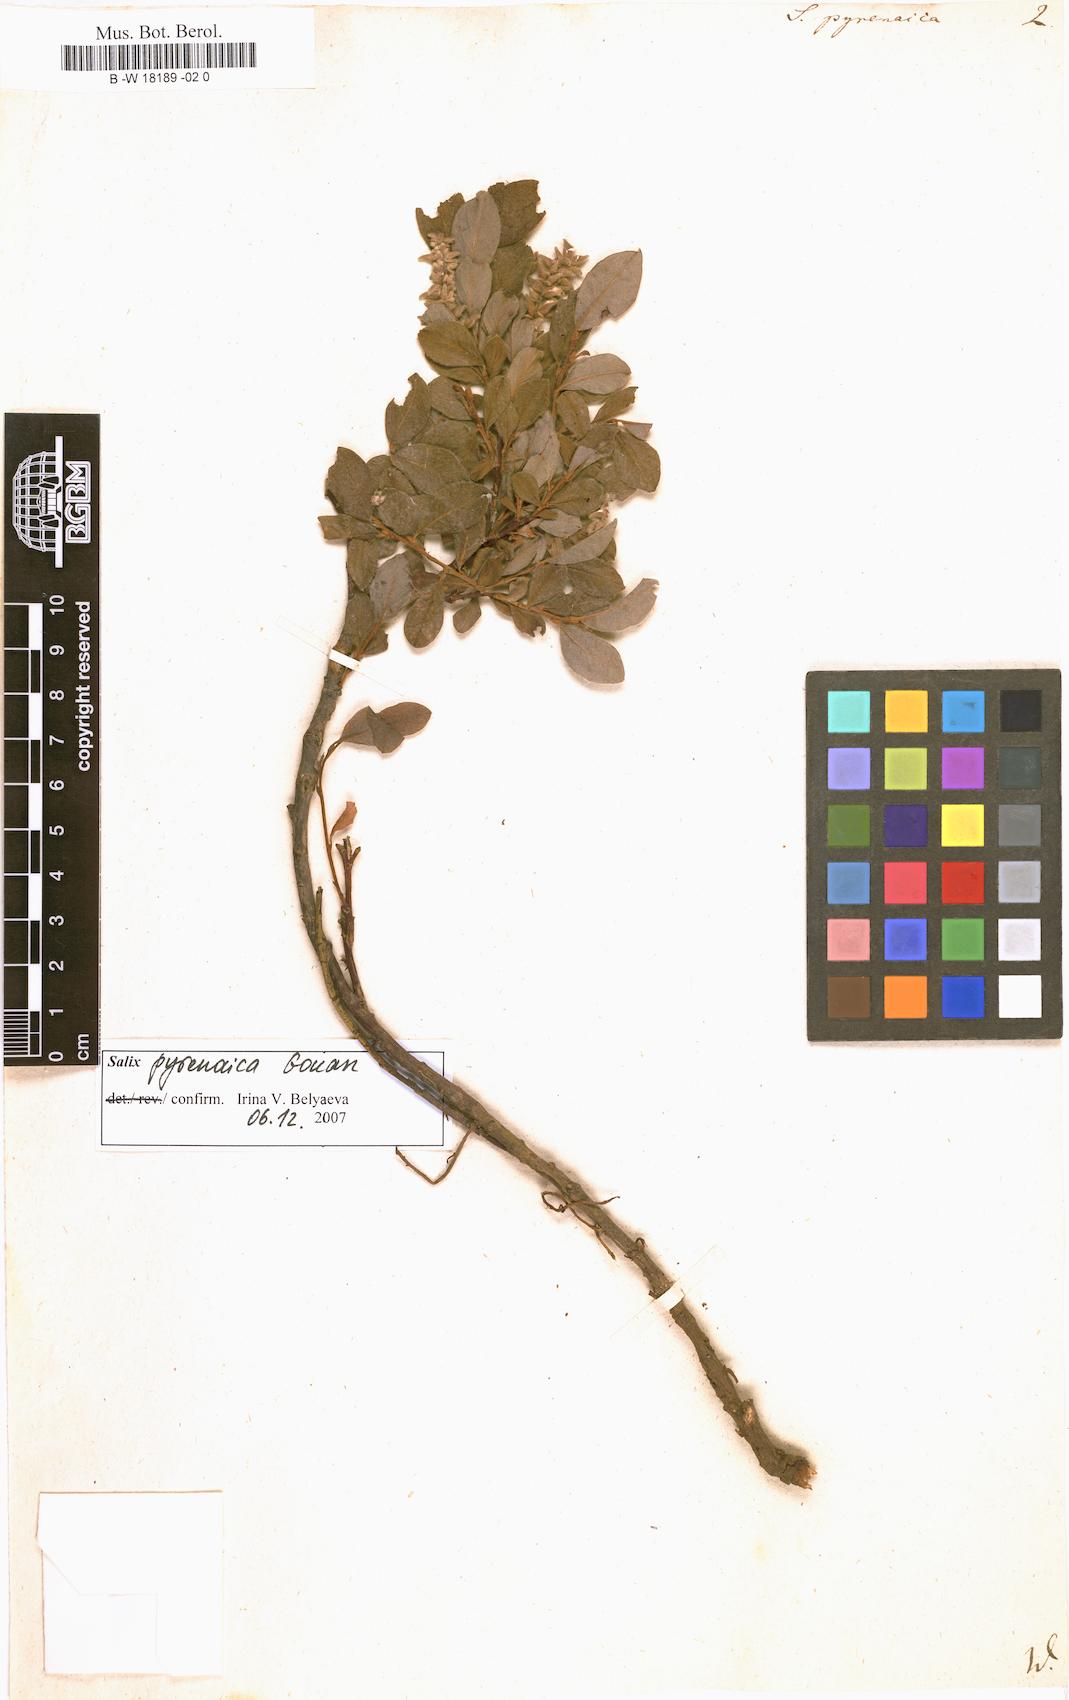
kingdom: Plantae
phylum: Tracheophyta
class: Magnoliopsida
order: Malpighiales
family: Salicaceae
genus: Salix
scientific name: Salix pyrenaica
